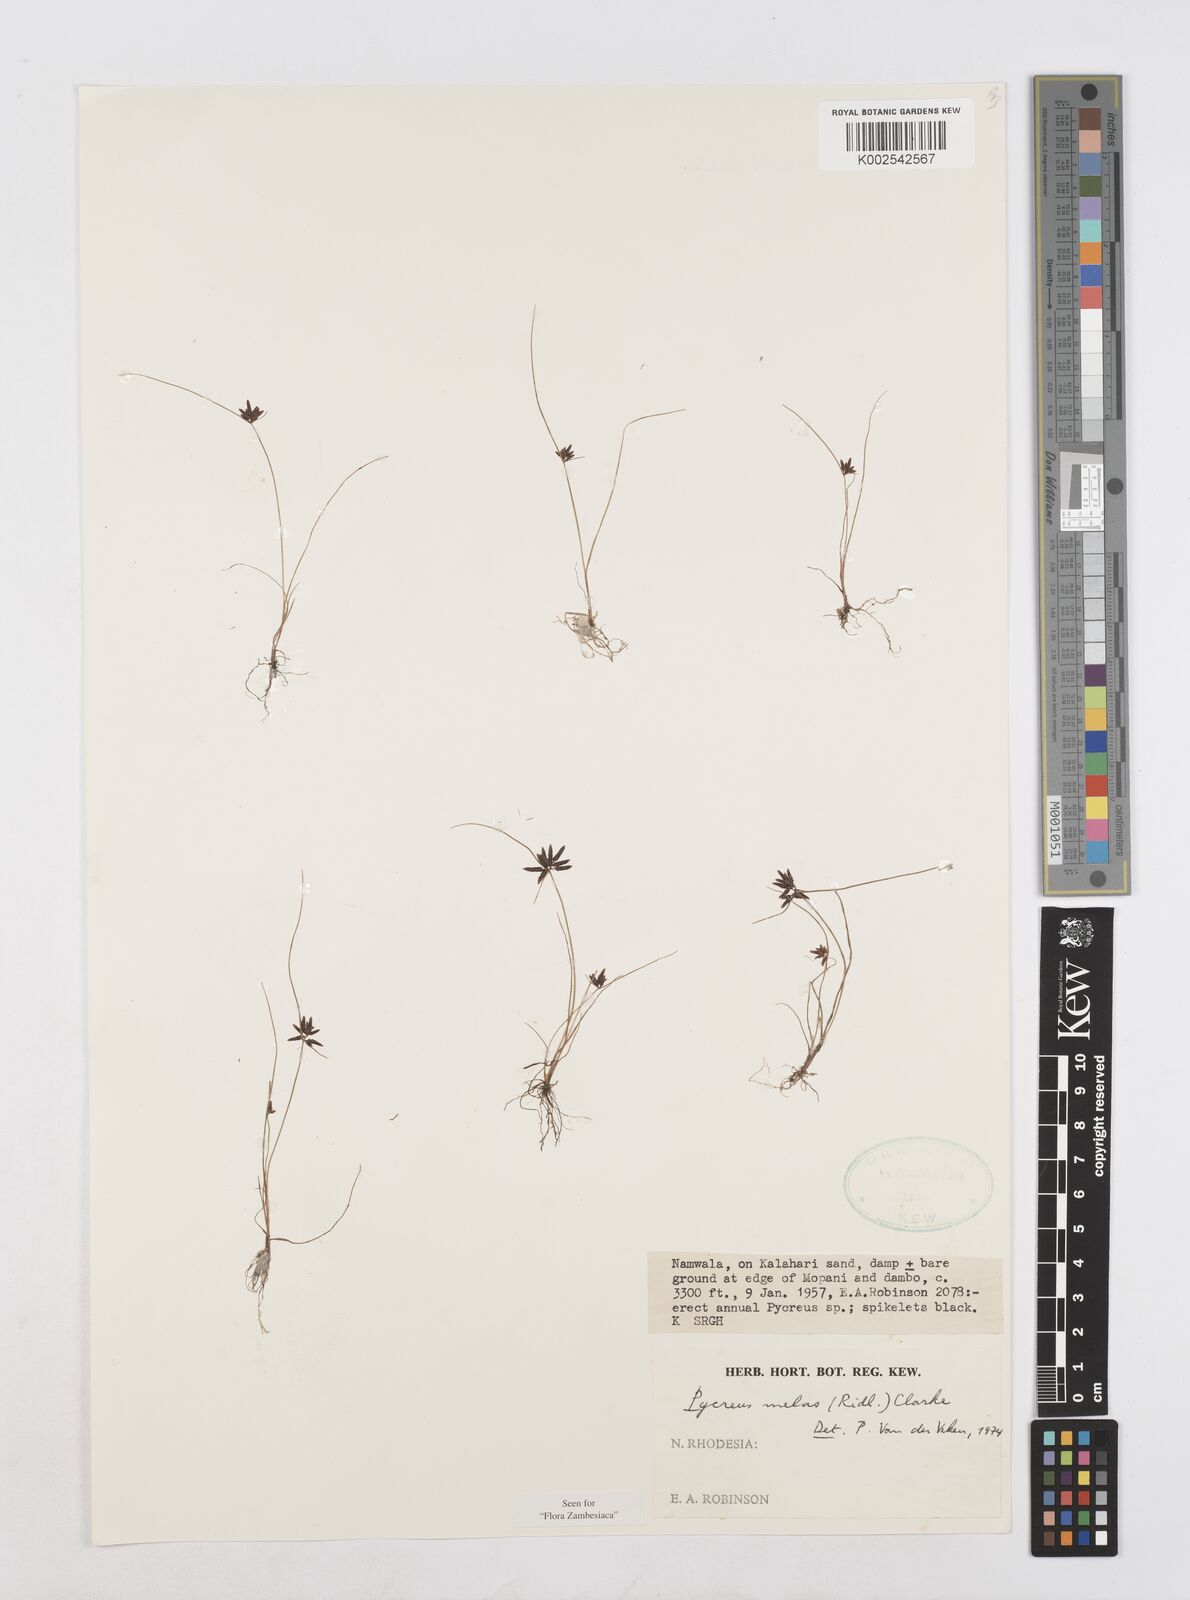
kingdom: Plantae
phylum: Tracheophyta
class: Liliopsida
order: Poales
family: Cyperaceae
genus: Cyperus
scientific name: Cyperus melas
